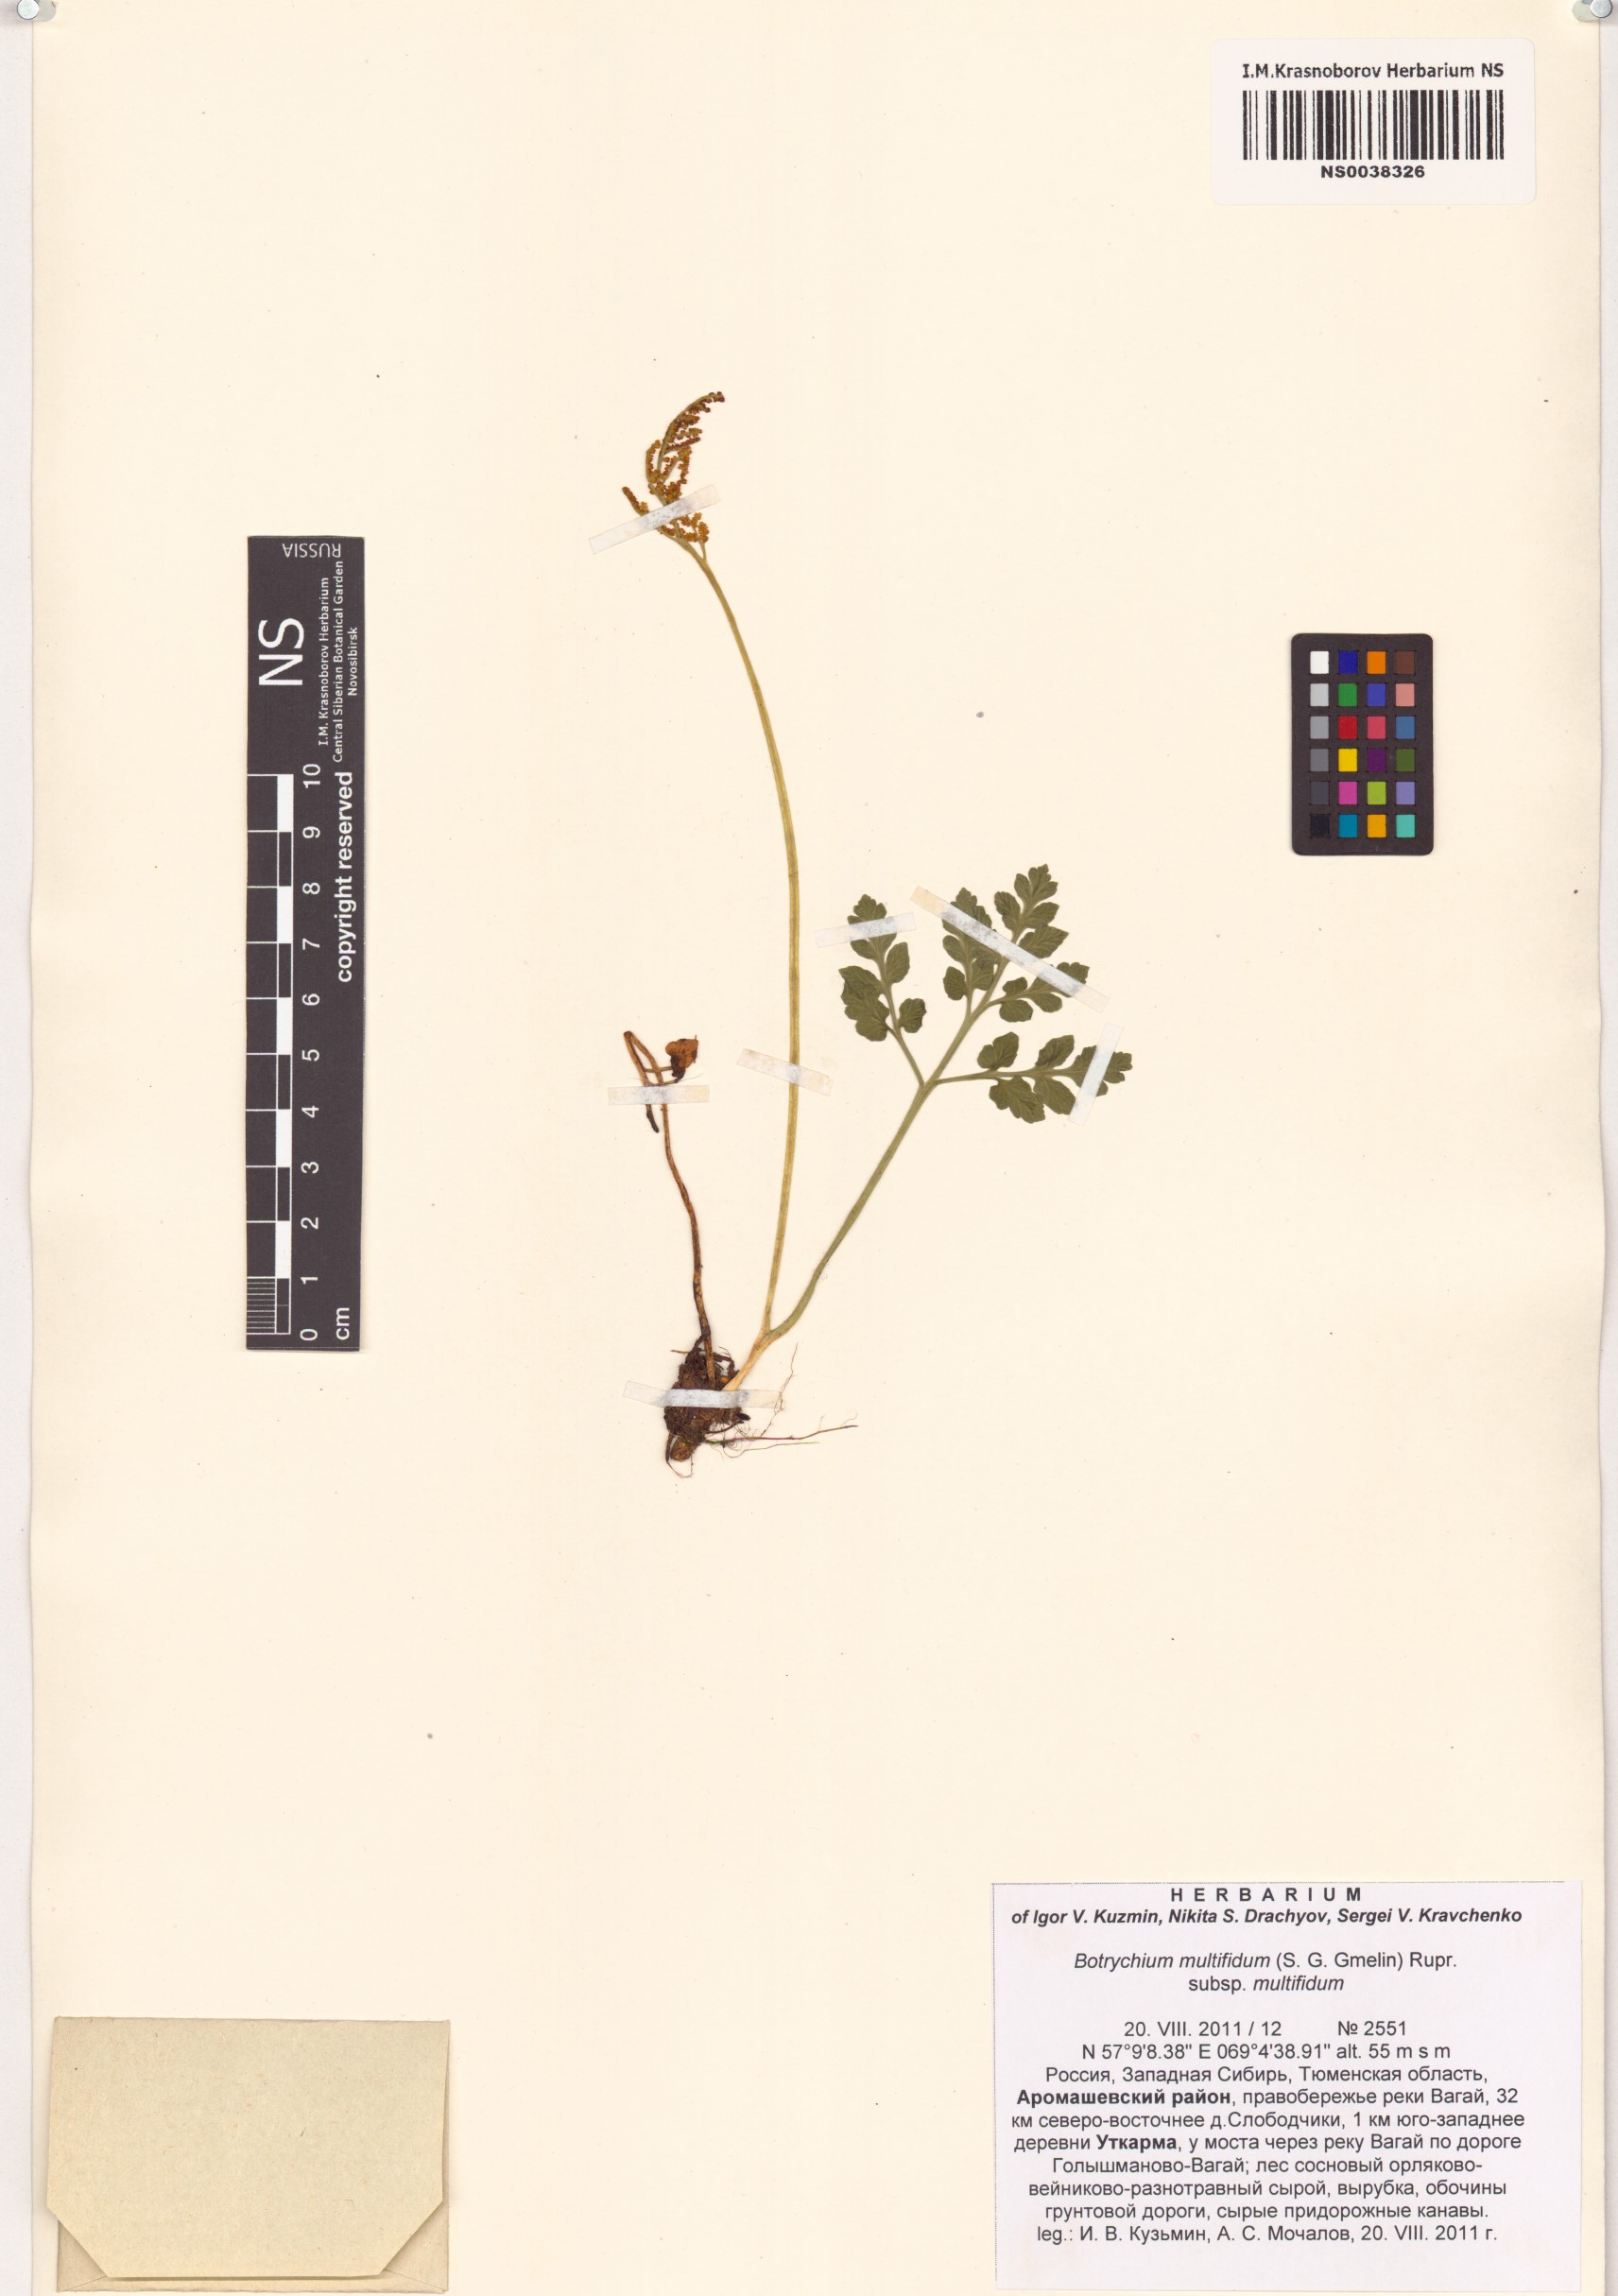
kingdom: Plantae
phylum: Tracheophyta
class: Polypodiopsida
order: Ophioglossales
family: Ophioglossaceae
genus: Sceptridium
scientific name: Sceptridium multifidum
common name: Leathery grape fern
